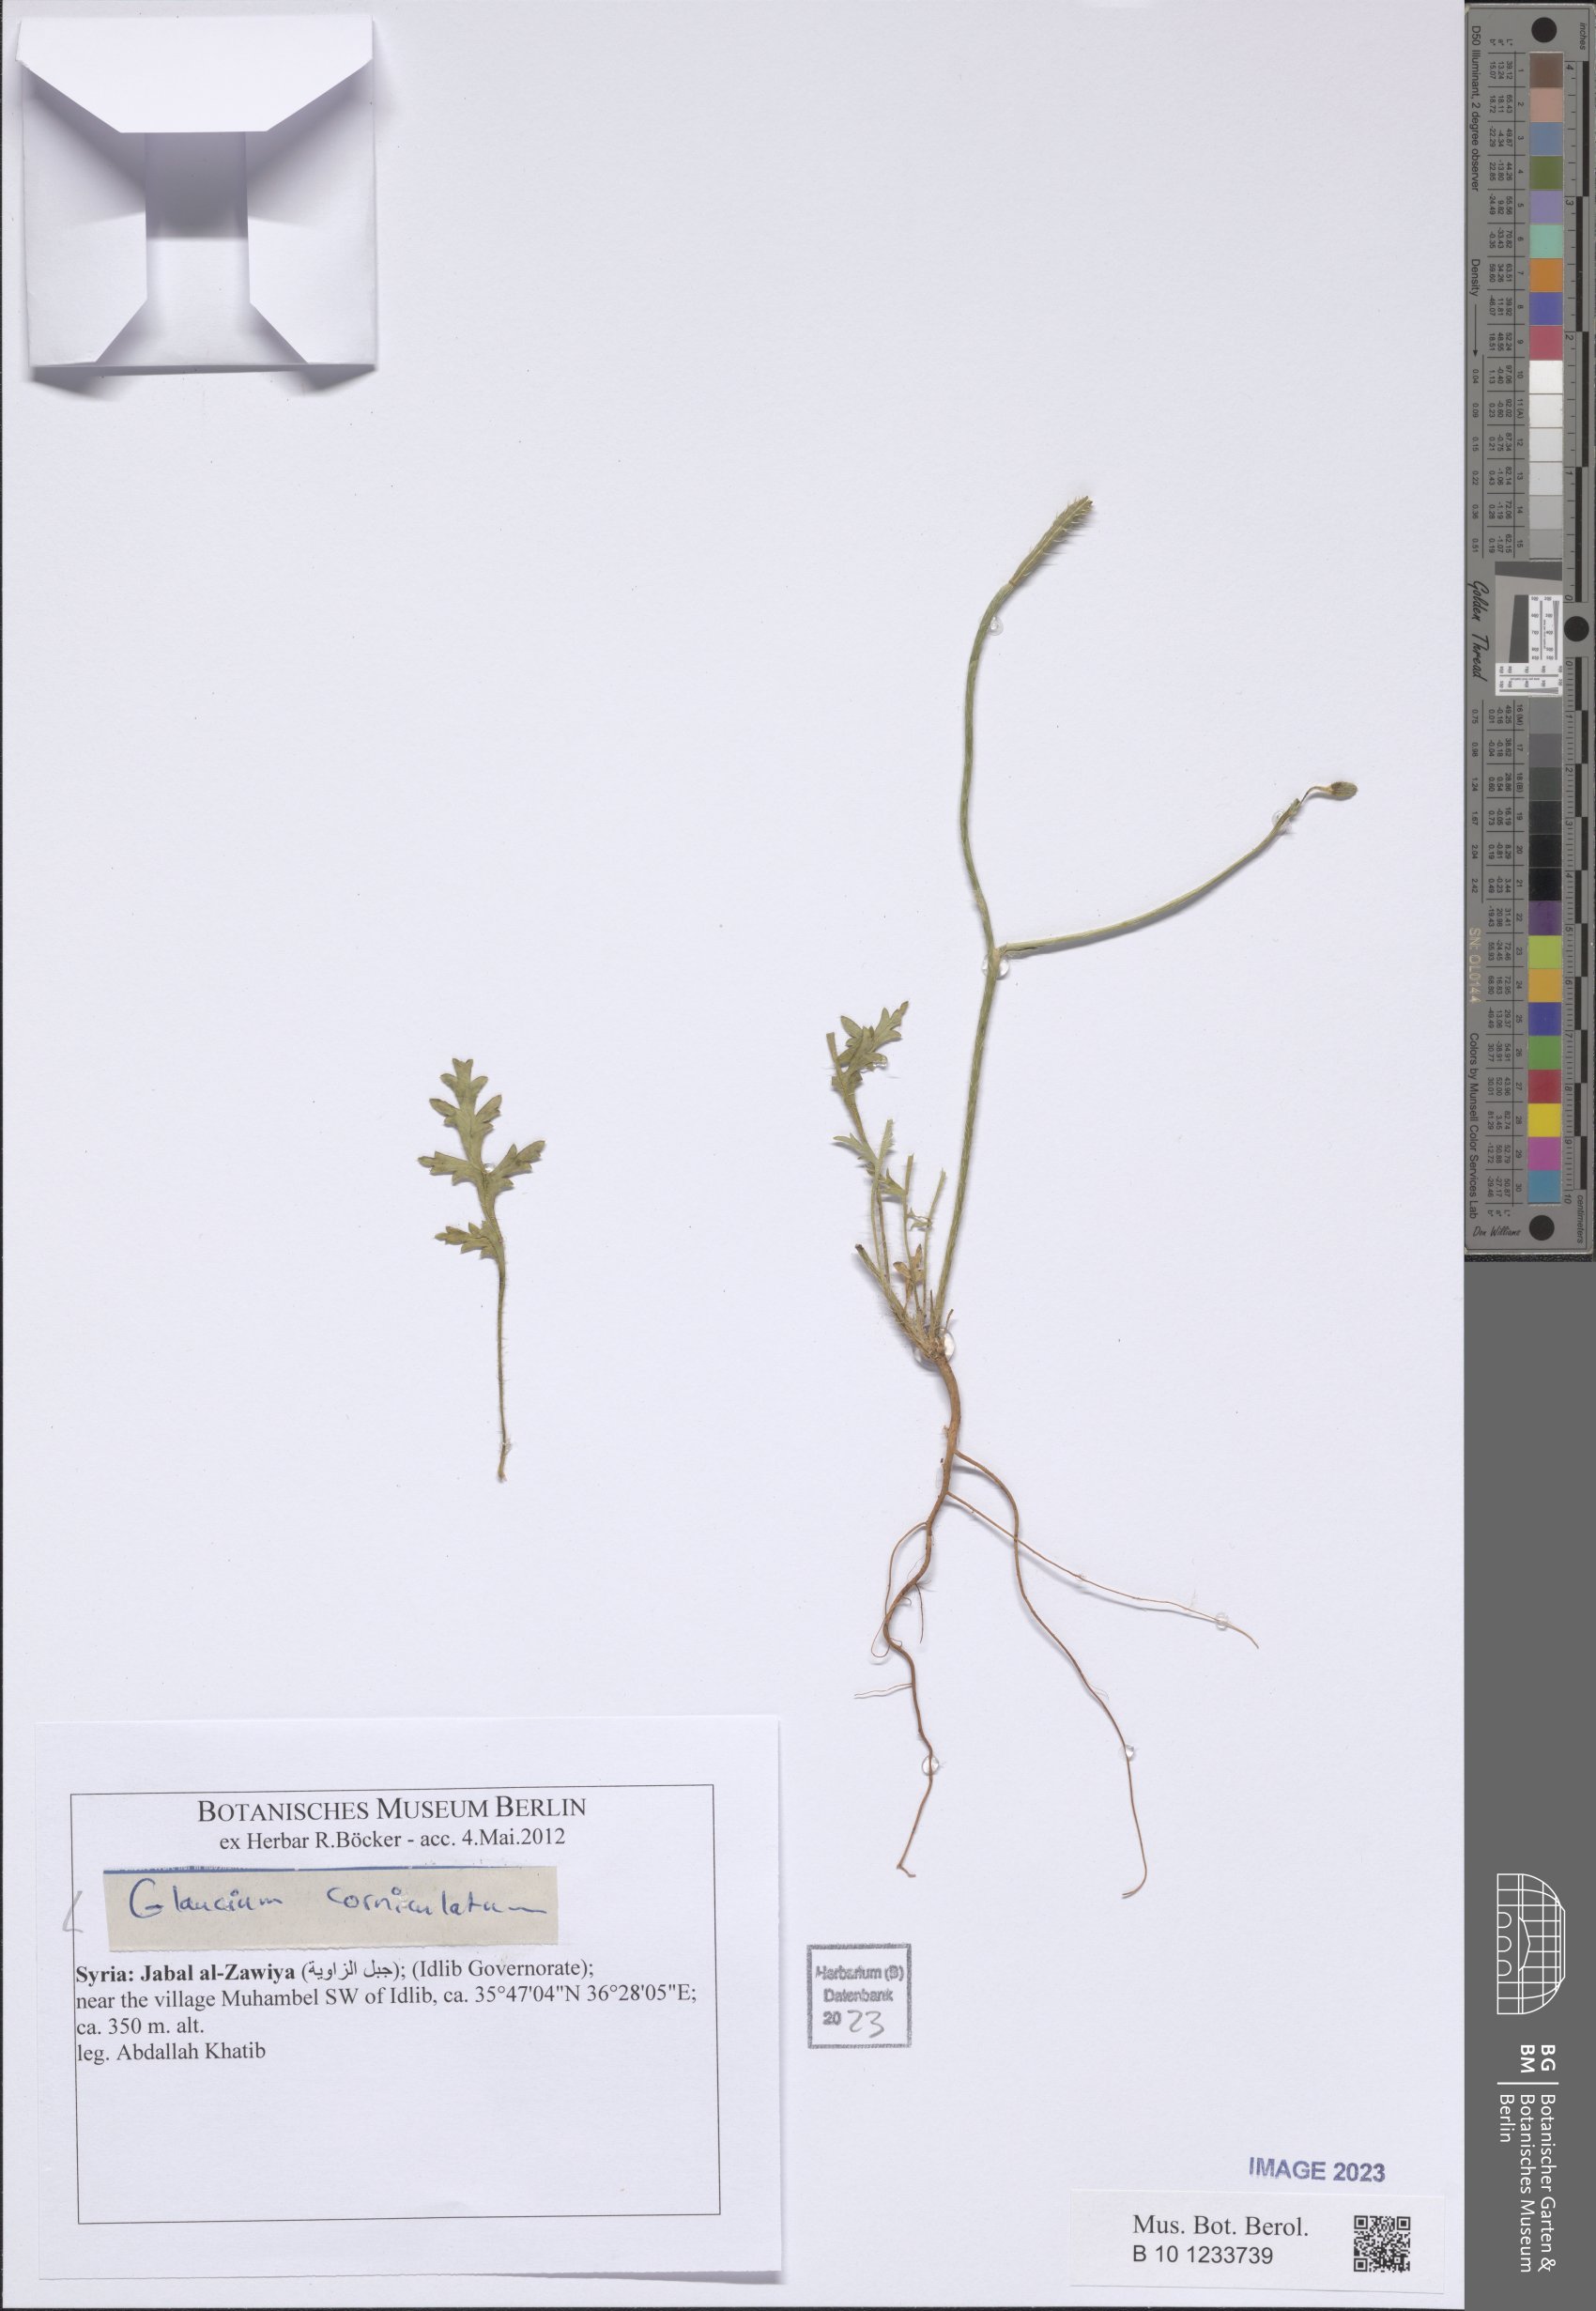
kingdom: Plantae
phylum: Tracheophyta
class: Magnoliopsida
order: Ranunculales
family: Papaveraceae
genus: Glaucium
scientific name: Glaucium corniculatum
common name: Red horned-poppy
